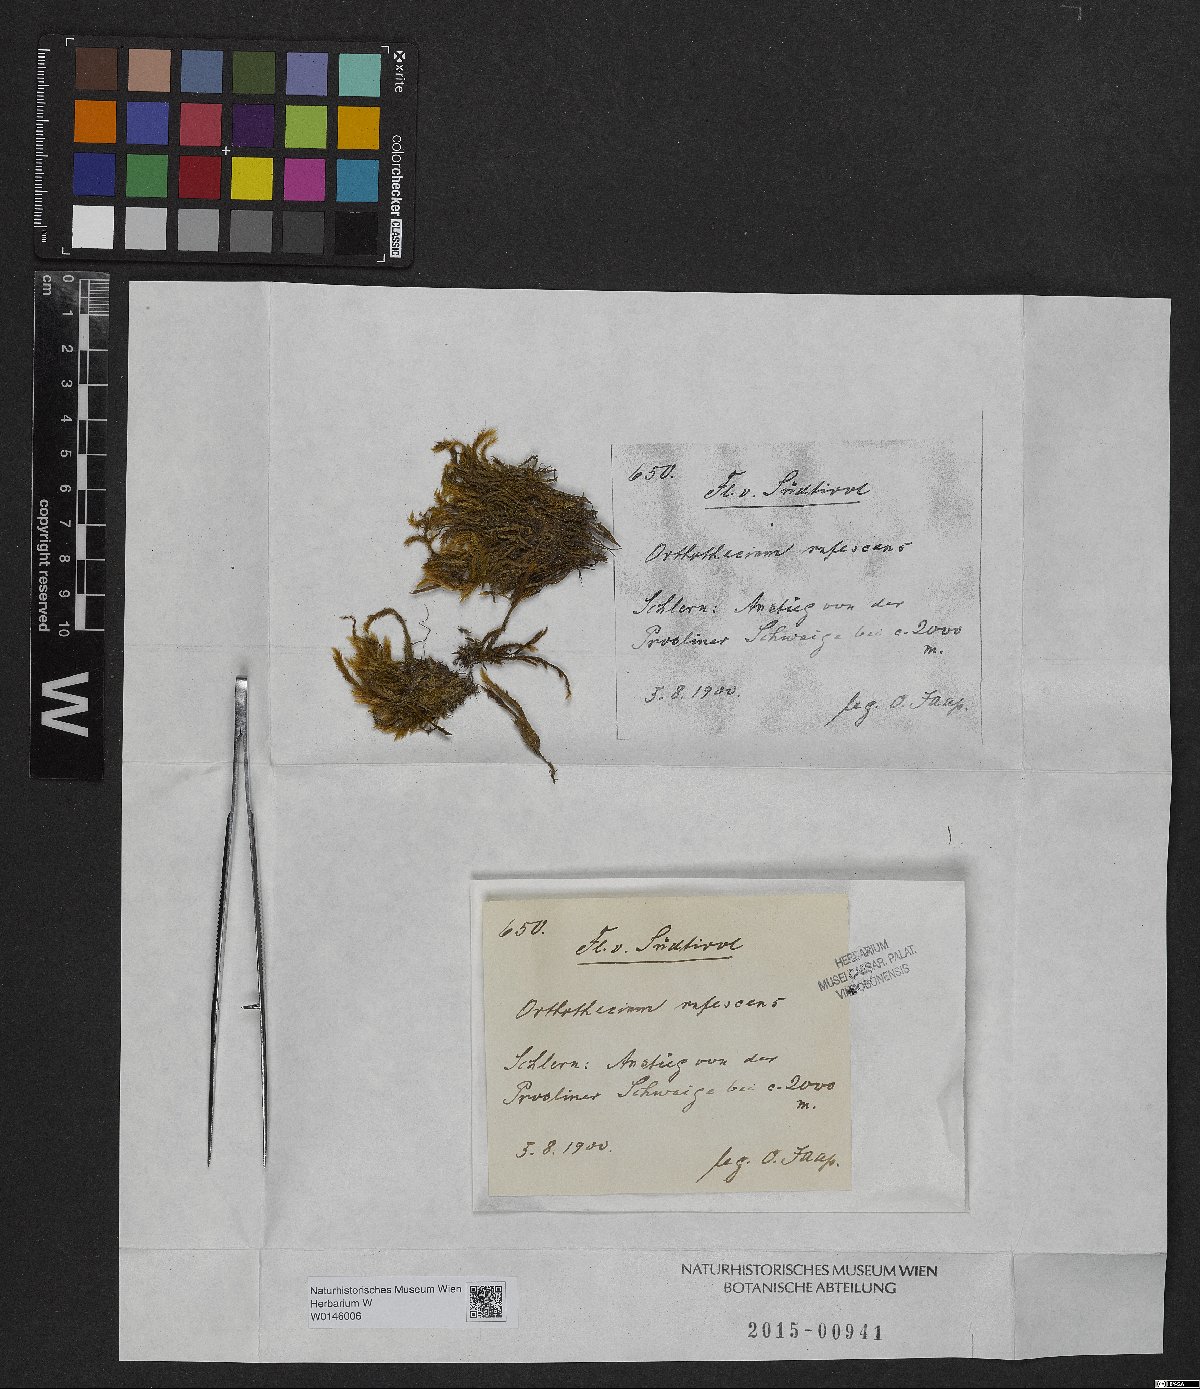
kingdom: Plantae
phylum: Bryophyta
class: Bryopsida
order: Hypnales
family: Plagiotheciaceae
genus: Orthothecium
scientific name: Orthothecium rufescens
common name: Red leskea
